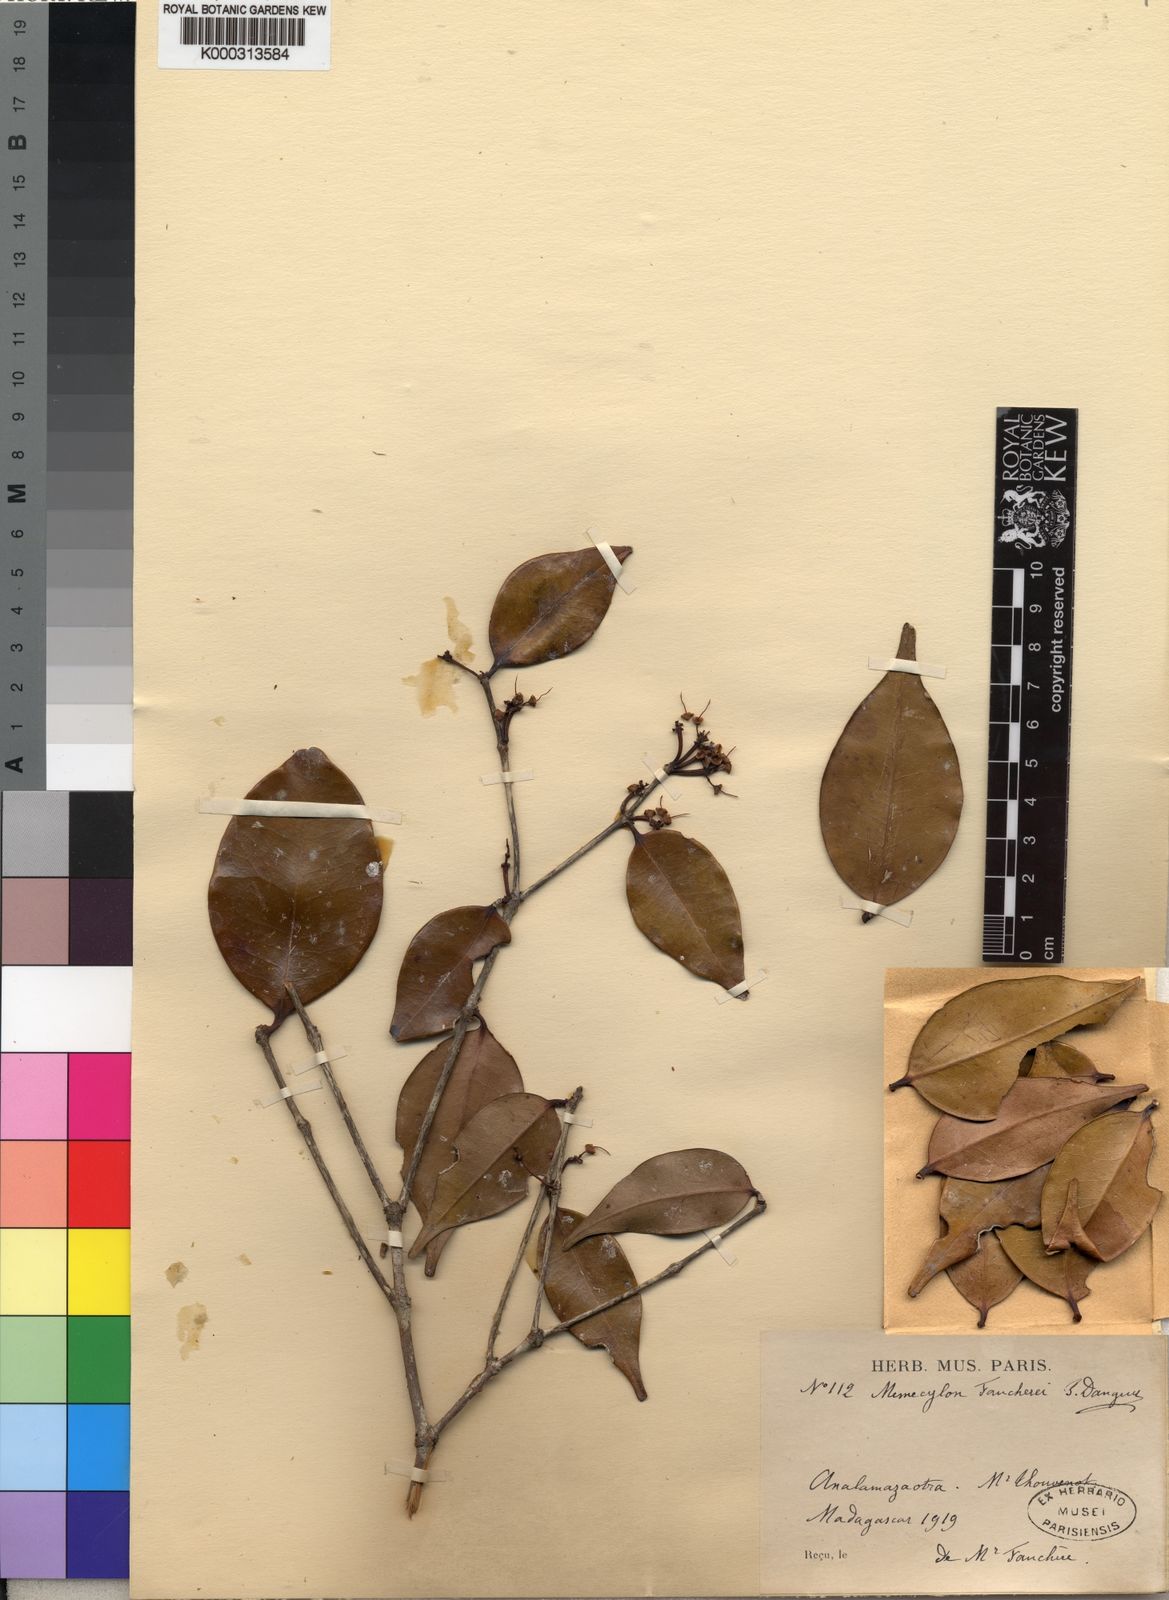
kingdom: Plantae
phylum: Tracheophyta
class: Magnoliopsida
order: Myrtales
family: Melastomataceae
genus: Memecylon
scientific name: Memecylon faucherei
